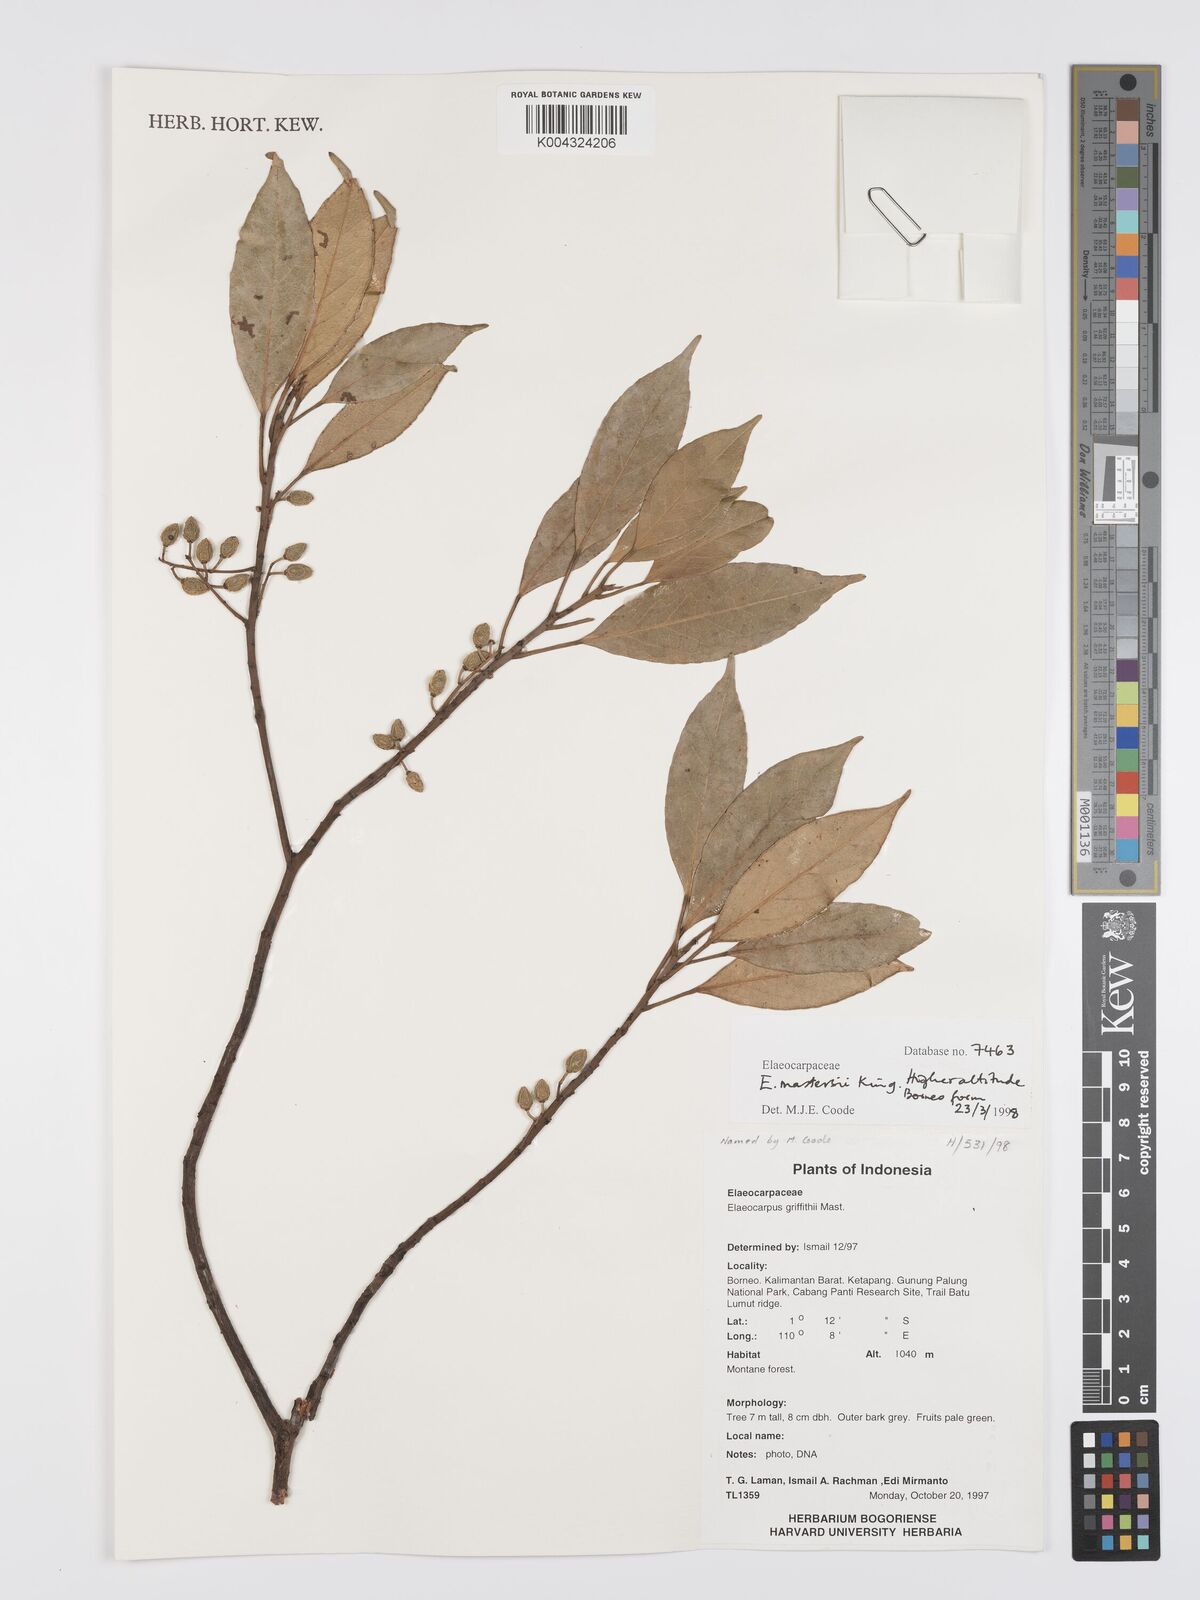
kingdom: Plantae
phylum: Tracheophyta
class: Magnoliopsida
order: Oxalidales
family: Elaeocarpaceae
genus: Elaeocarpus
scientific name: Elaeocarpus mastersii
